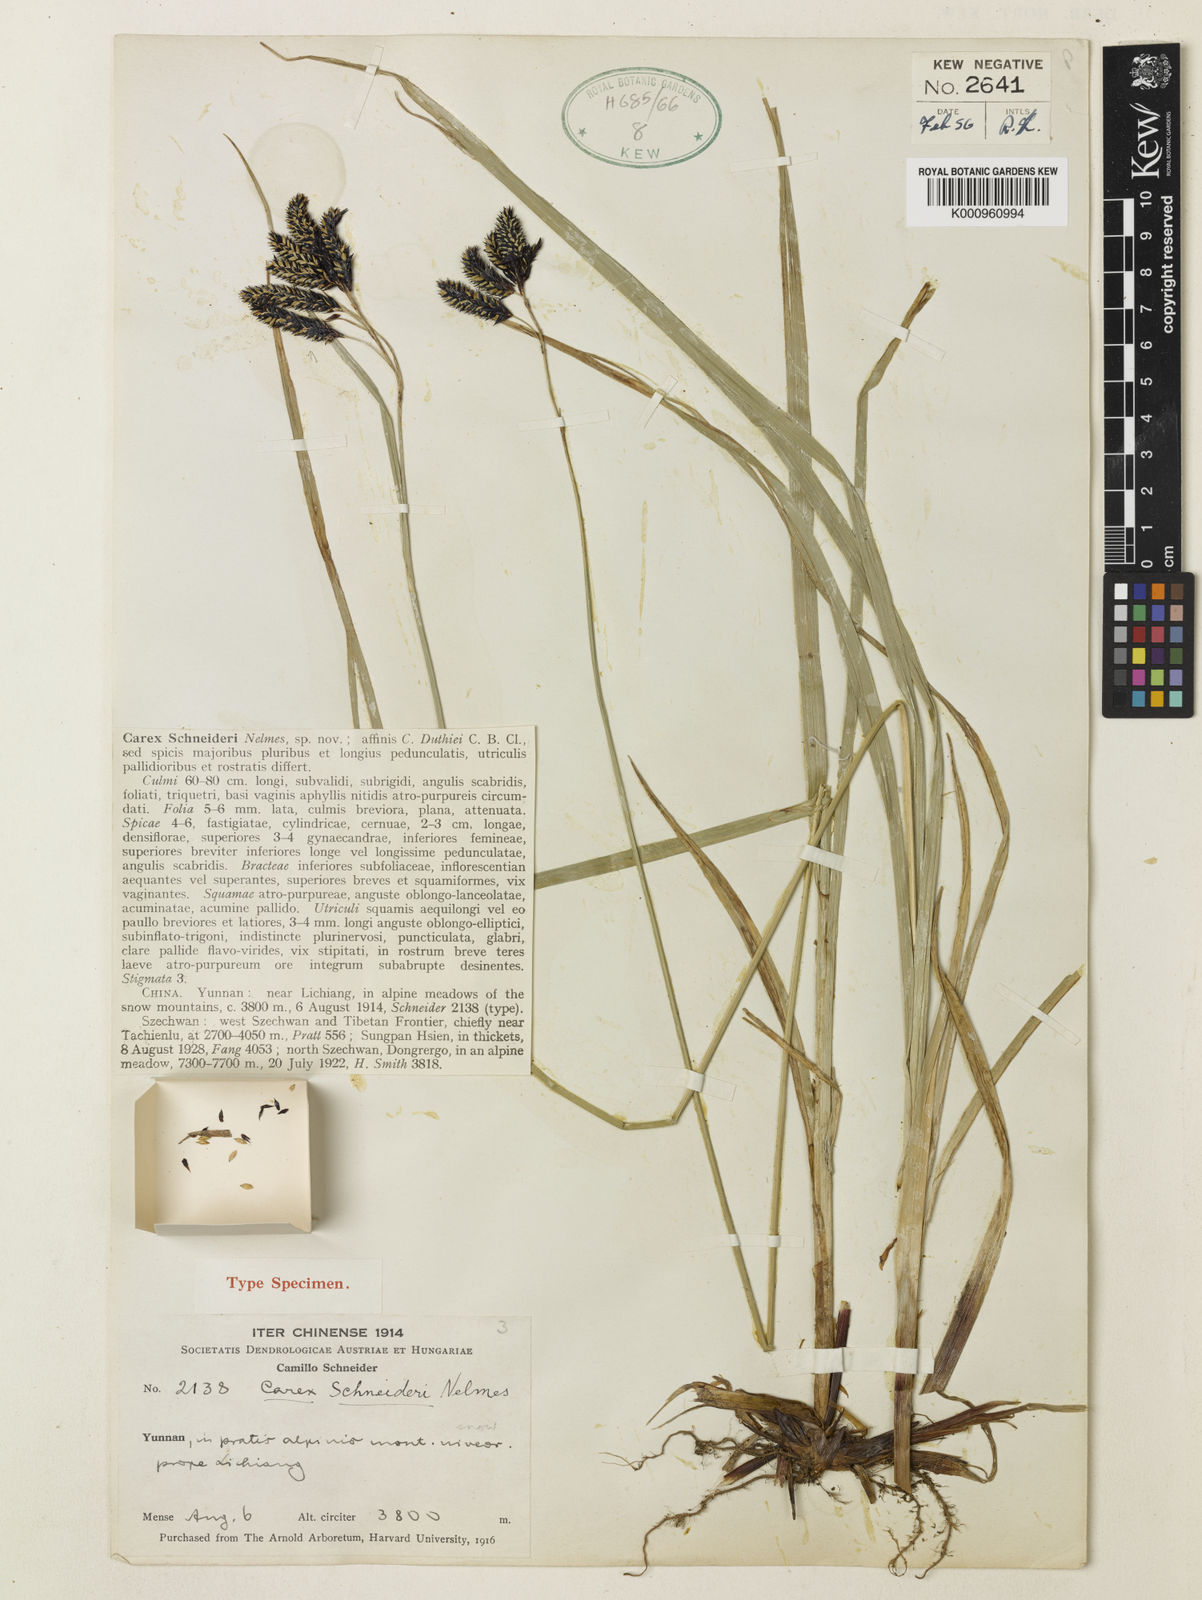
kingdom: Plantae
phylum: Tracheophyta
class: Liliopsida
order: Poales
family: Cyperaceae
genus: Carex
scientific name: Carex schneideri
